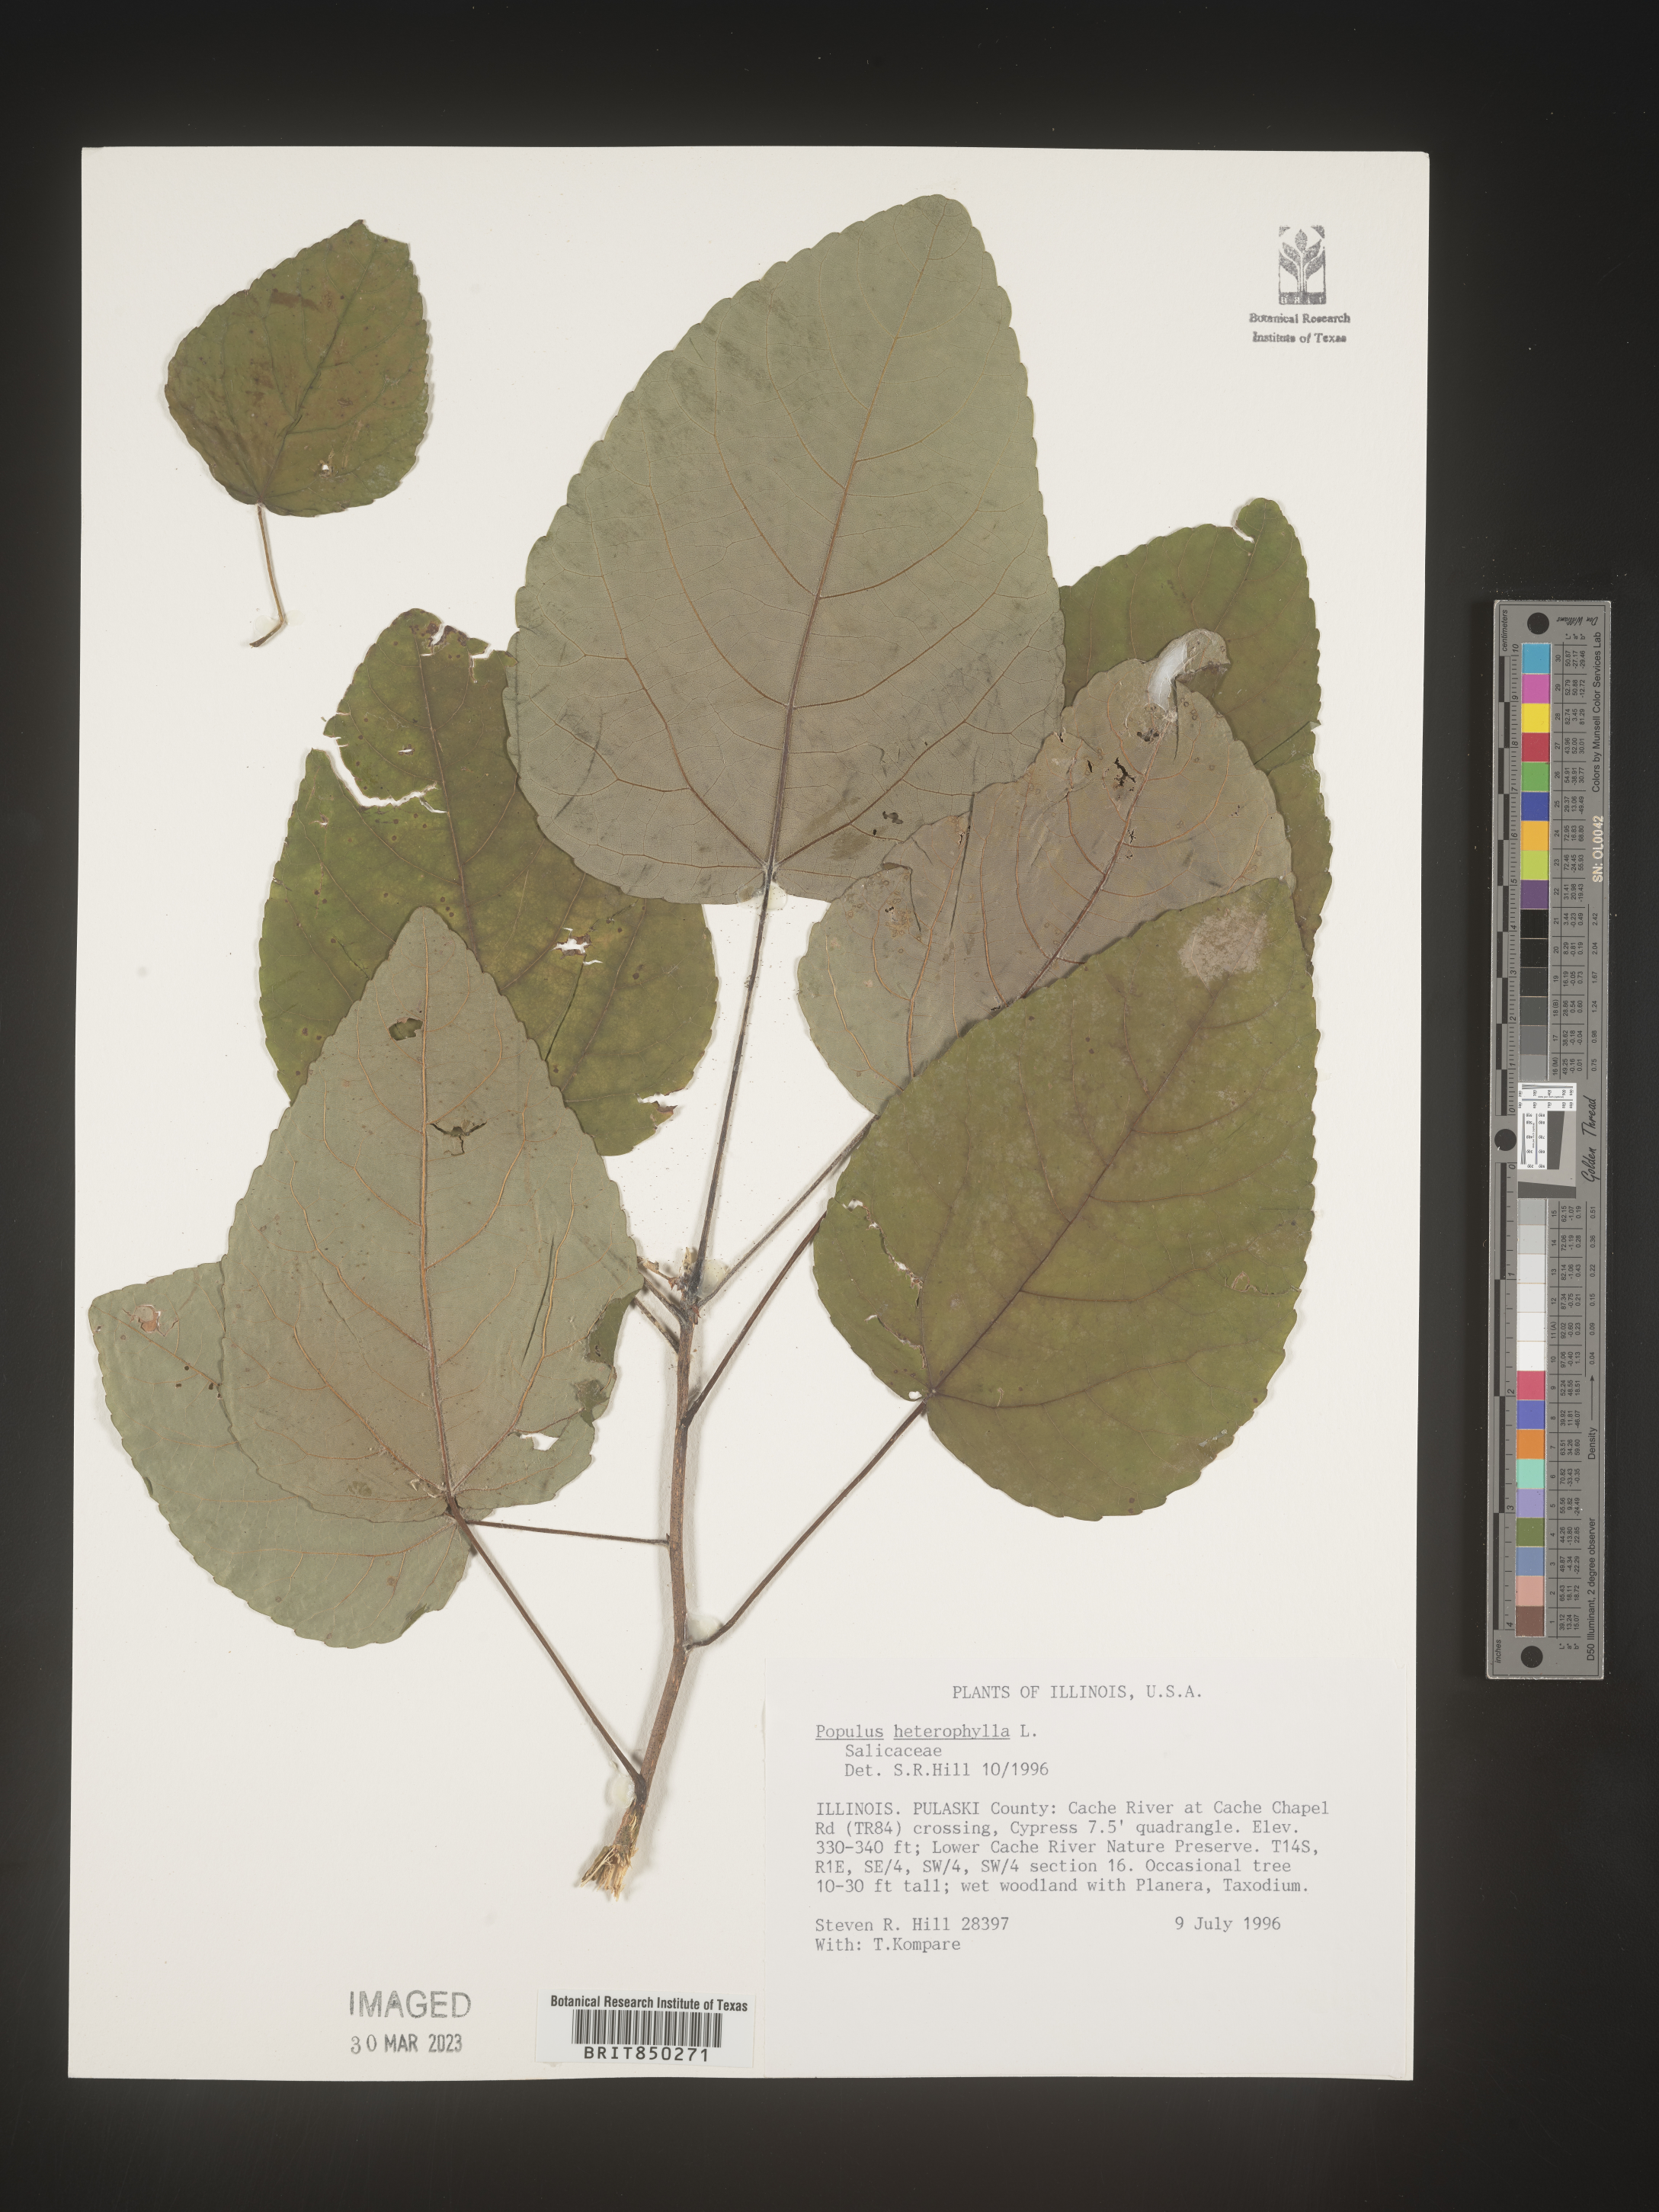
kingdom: Plantae
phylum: Tracheophyta
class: Magnoliopsida
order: Malpighiales
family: Salicaceae
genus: Populus
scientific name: Populus heterophylla
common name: Downy poplar
